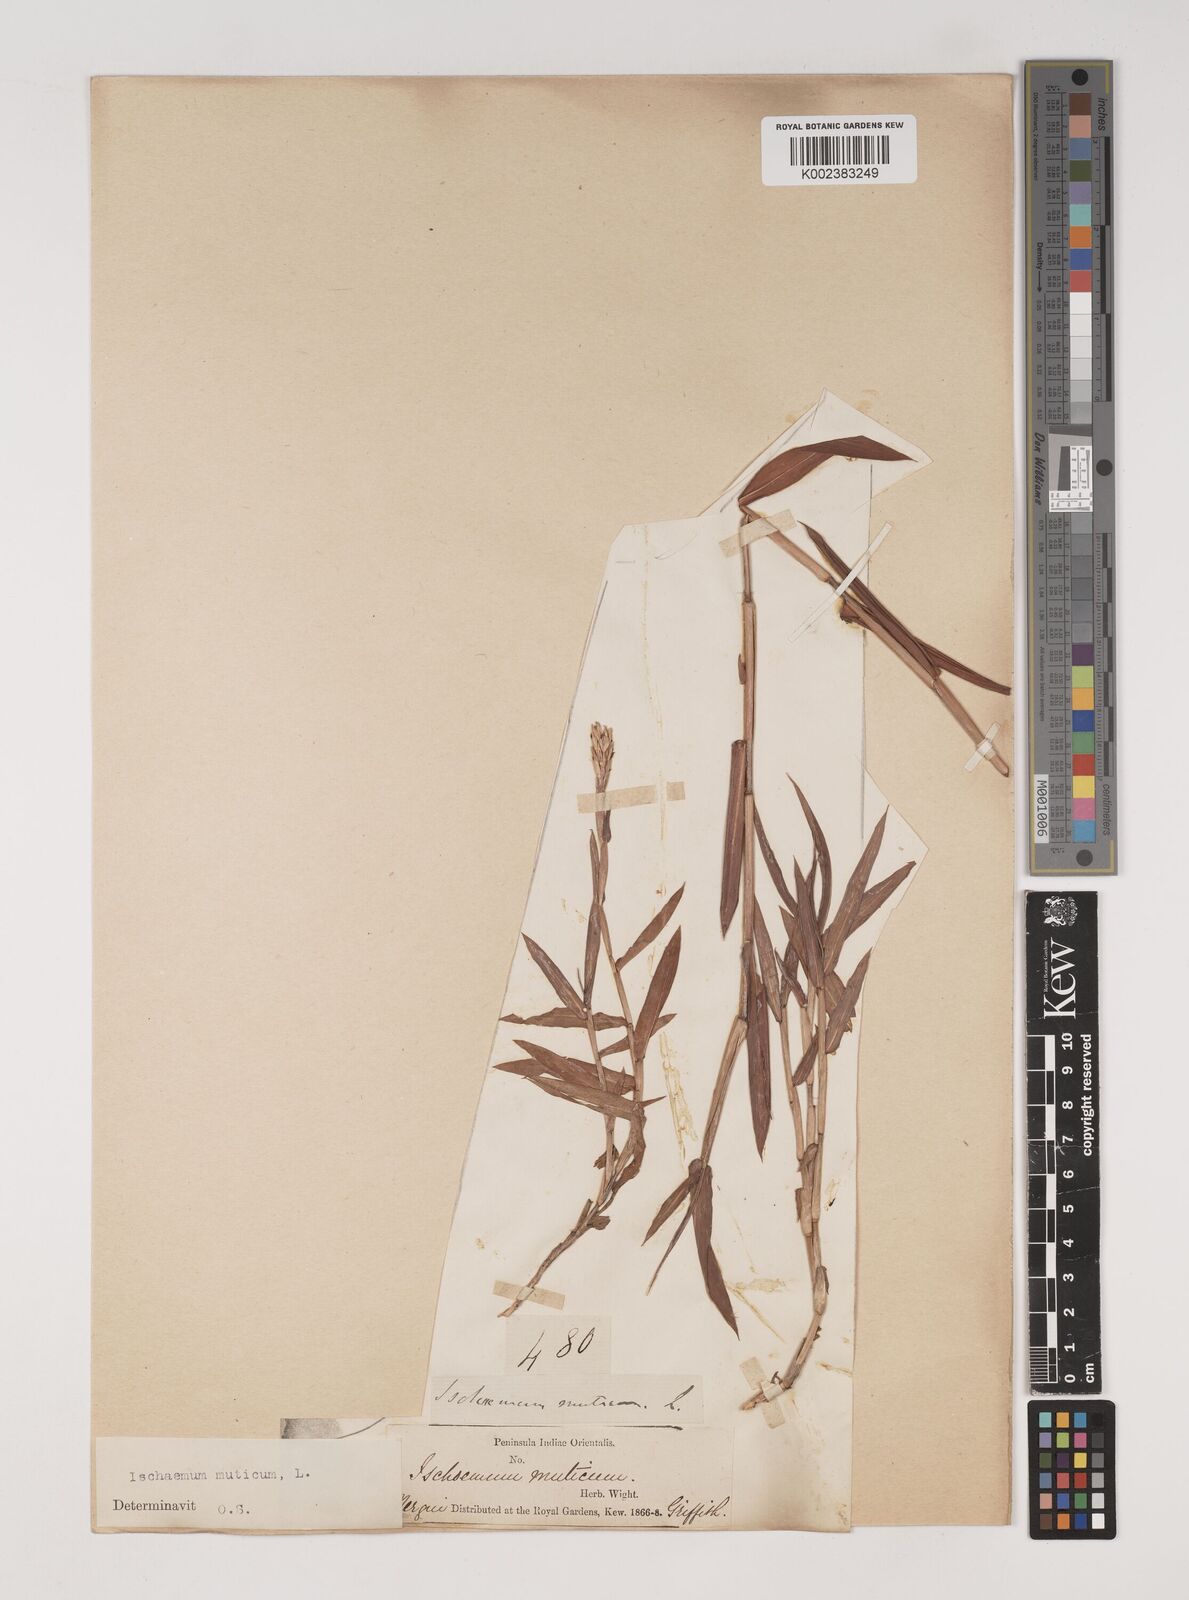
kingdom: Plantae
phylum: Tracheophyta
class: Liliopsida
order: Poales
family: Poaceae
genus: Ischaemum
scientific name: Ischaemum muticum
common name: Drought grass
